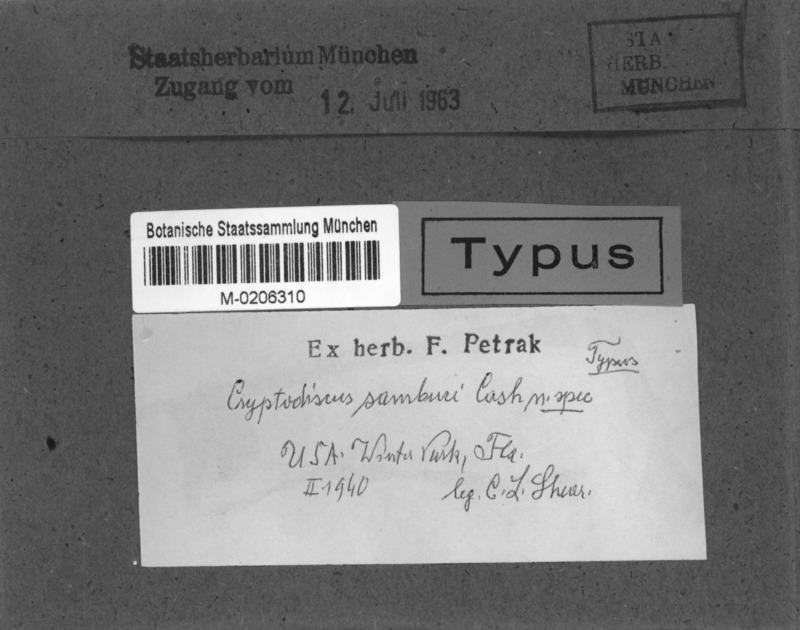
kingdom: Fungi
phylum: Ascomycota
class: Lecanoromycetes
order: Ostropales
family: Stictidaceae
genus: Cryptodiscus
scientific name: Cryptodiscus
